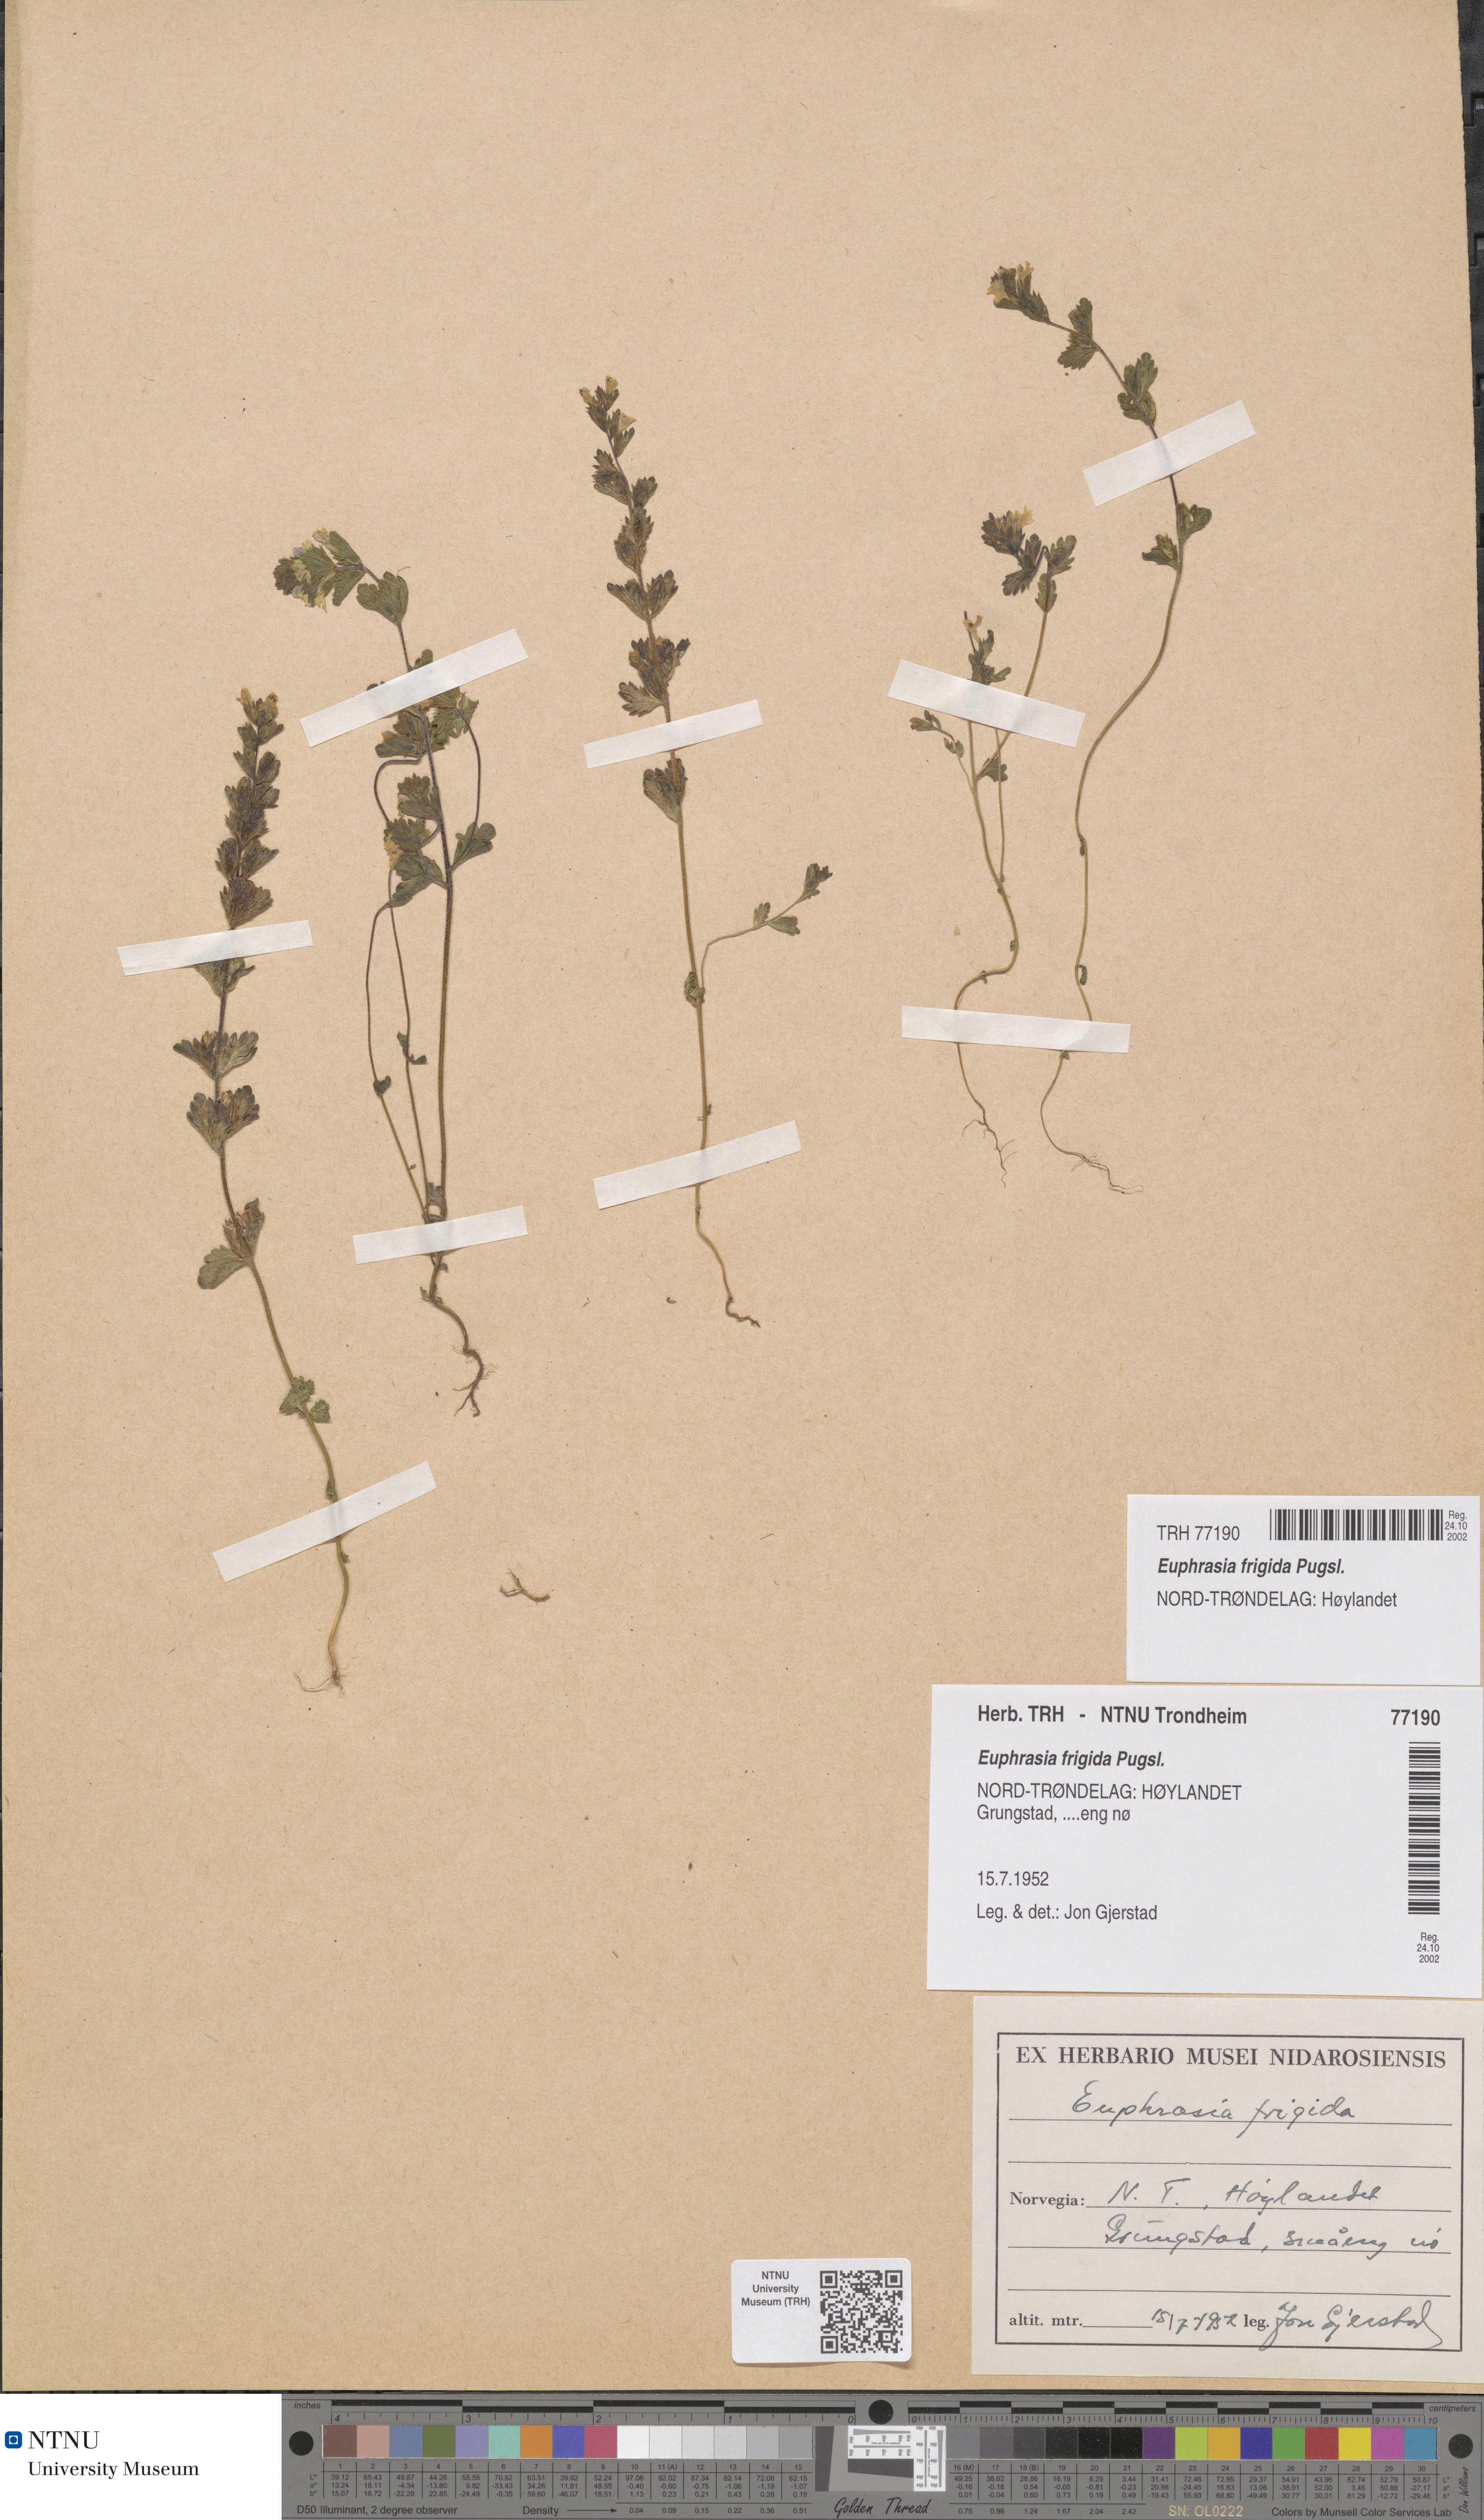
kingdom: Plantae
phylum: Tracheophyta
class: Magnoliopsida
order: Lamiales
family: Orobanchaceae
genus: Euphrasia
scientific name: Euphrasia wettsteinii
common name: Wettstein's eyebright
